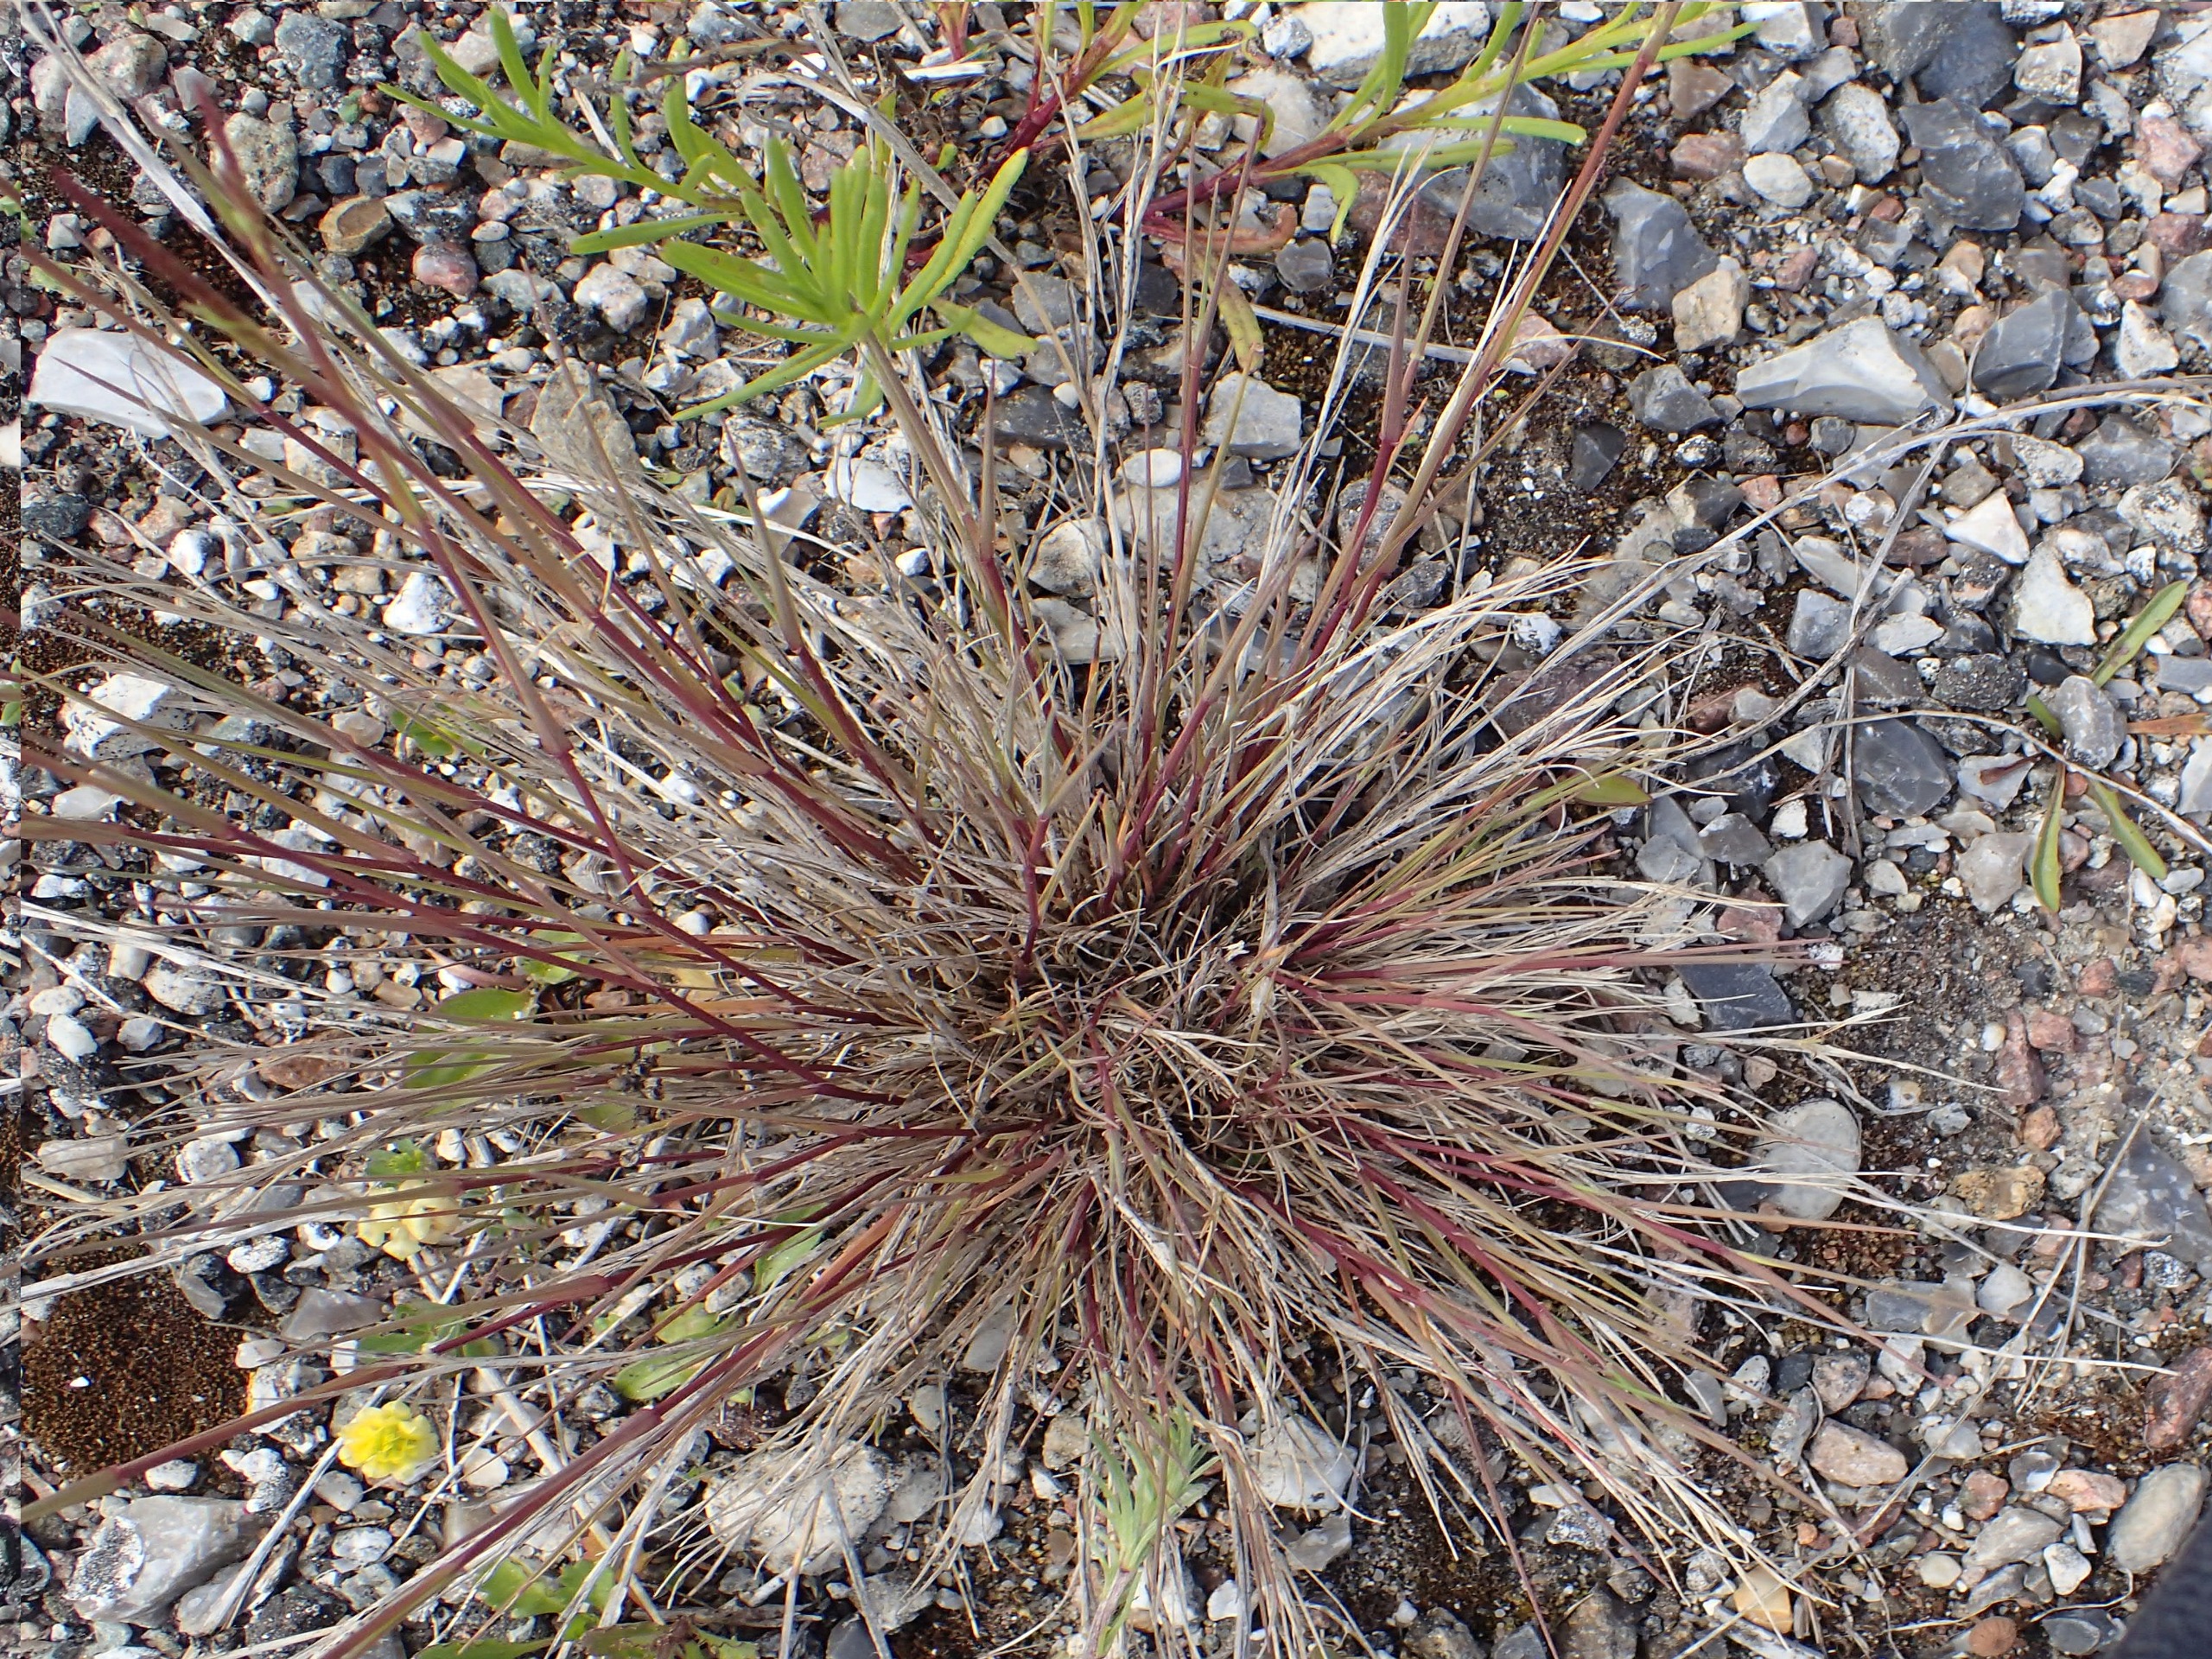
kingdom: Plantae
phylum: Tracheophyta
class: Liliopsida
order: Poales
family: Poaceae
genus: Festuca
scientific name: Festuca trachyphylla
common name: Bakke-svingel
